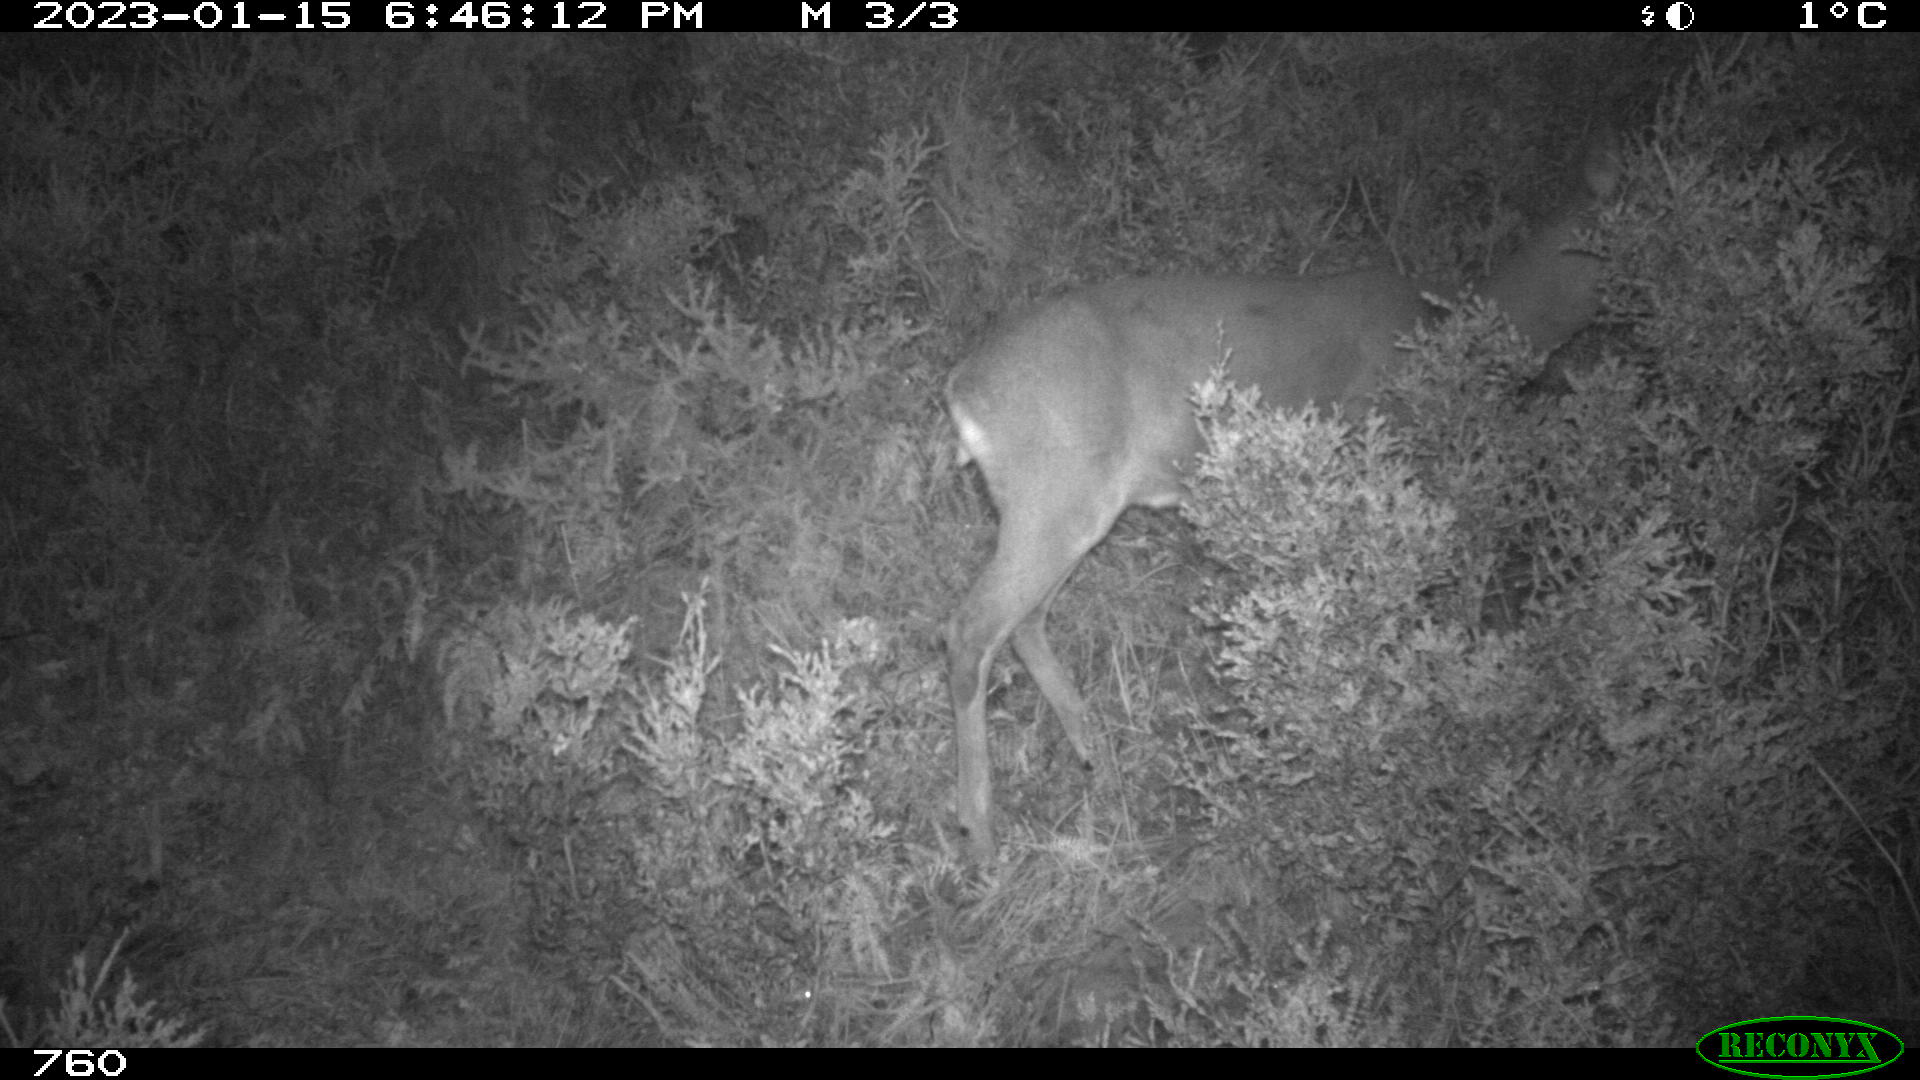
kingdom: Animalia
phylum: Chordata
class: Mammalia
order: Artiodactyla
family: Cervidae
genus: Capreolus
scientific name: Capreolus capreolus
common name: Western roe deer
